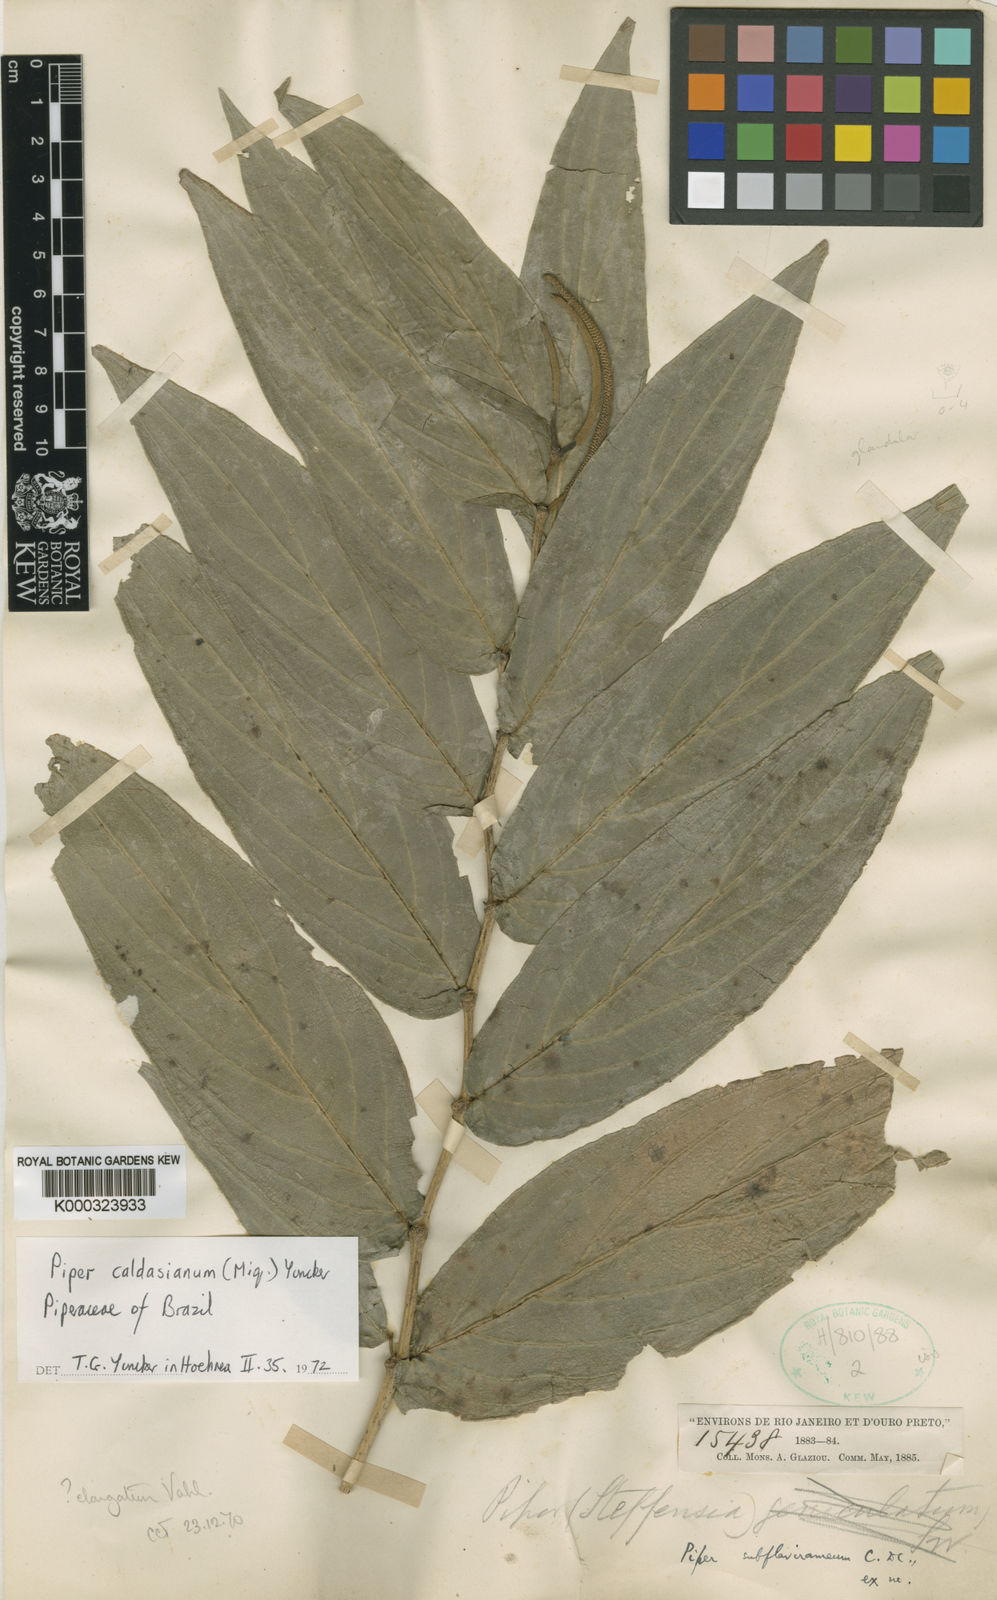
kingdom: Plantae
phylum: Tracheophyta
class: Magnoliopsida
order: Piperales
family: Piperaceae
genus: Piper
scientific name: Piper caldasianum
